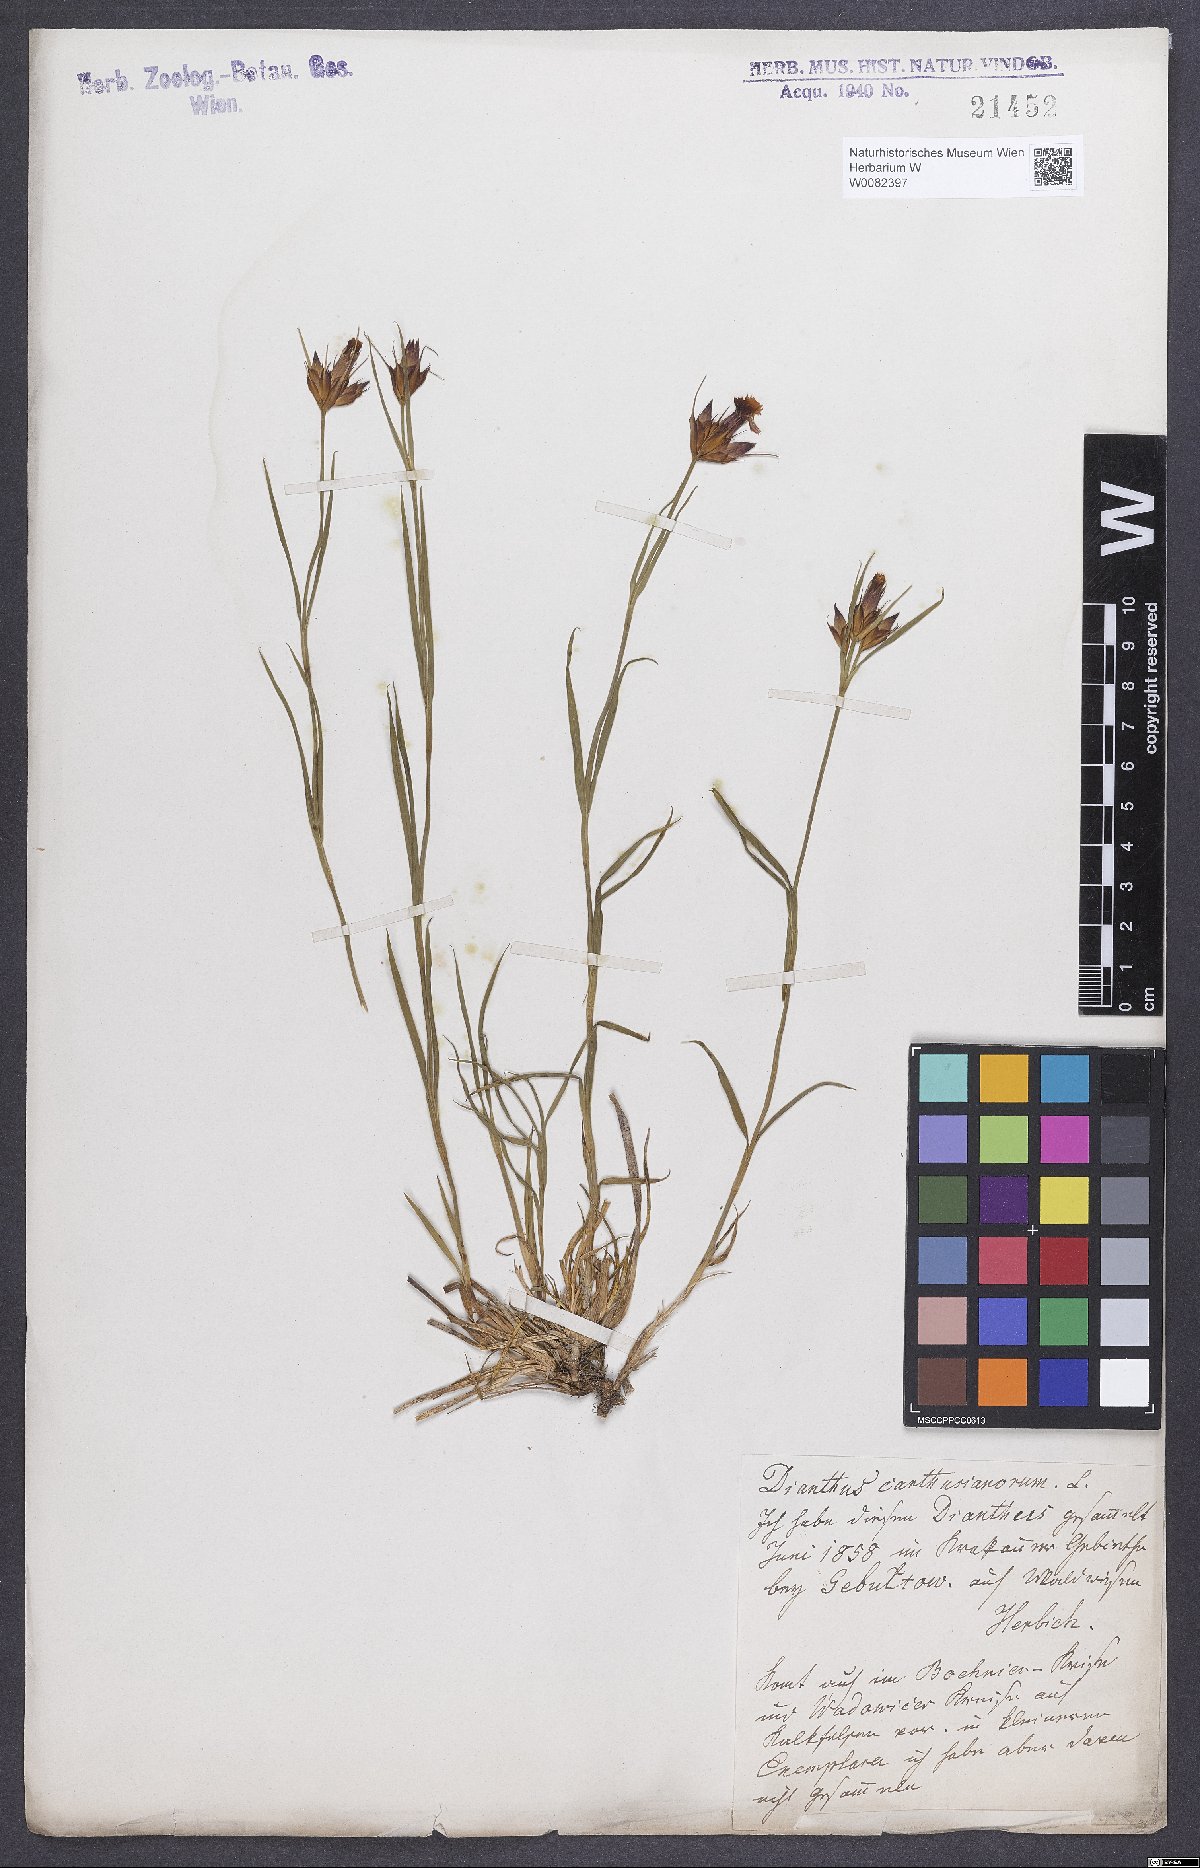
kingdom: Plantae
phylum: Tracheophyta
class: Magnoliopsida
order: Caryophyllales
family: Caryophyllaceae
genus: Dianthus
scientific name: Dianthus carthusianorum
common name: Carthusian pink
